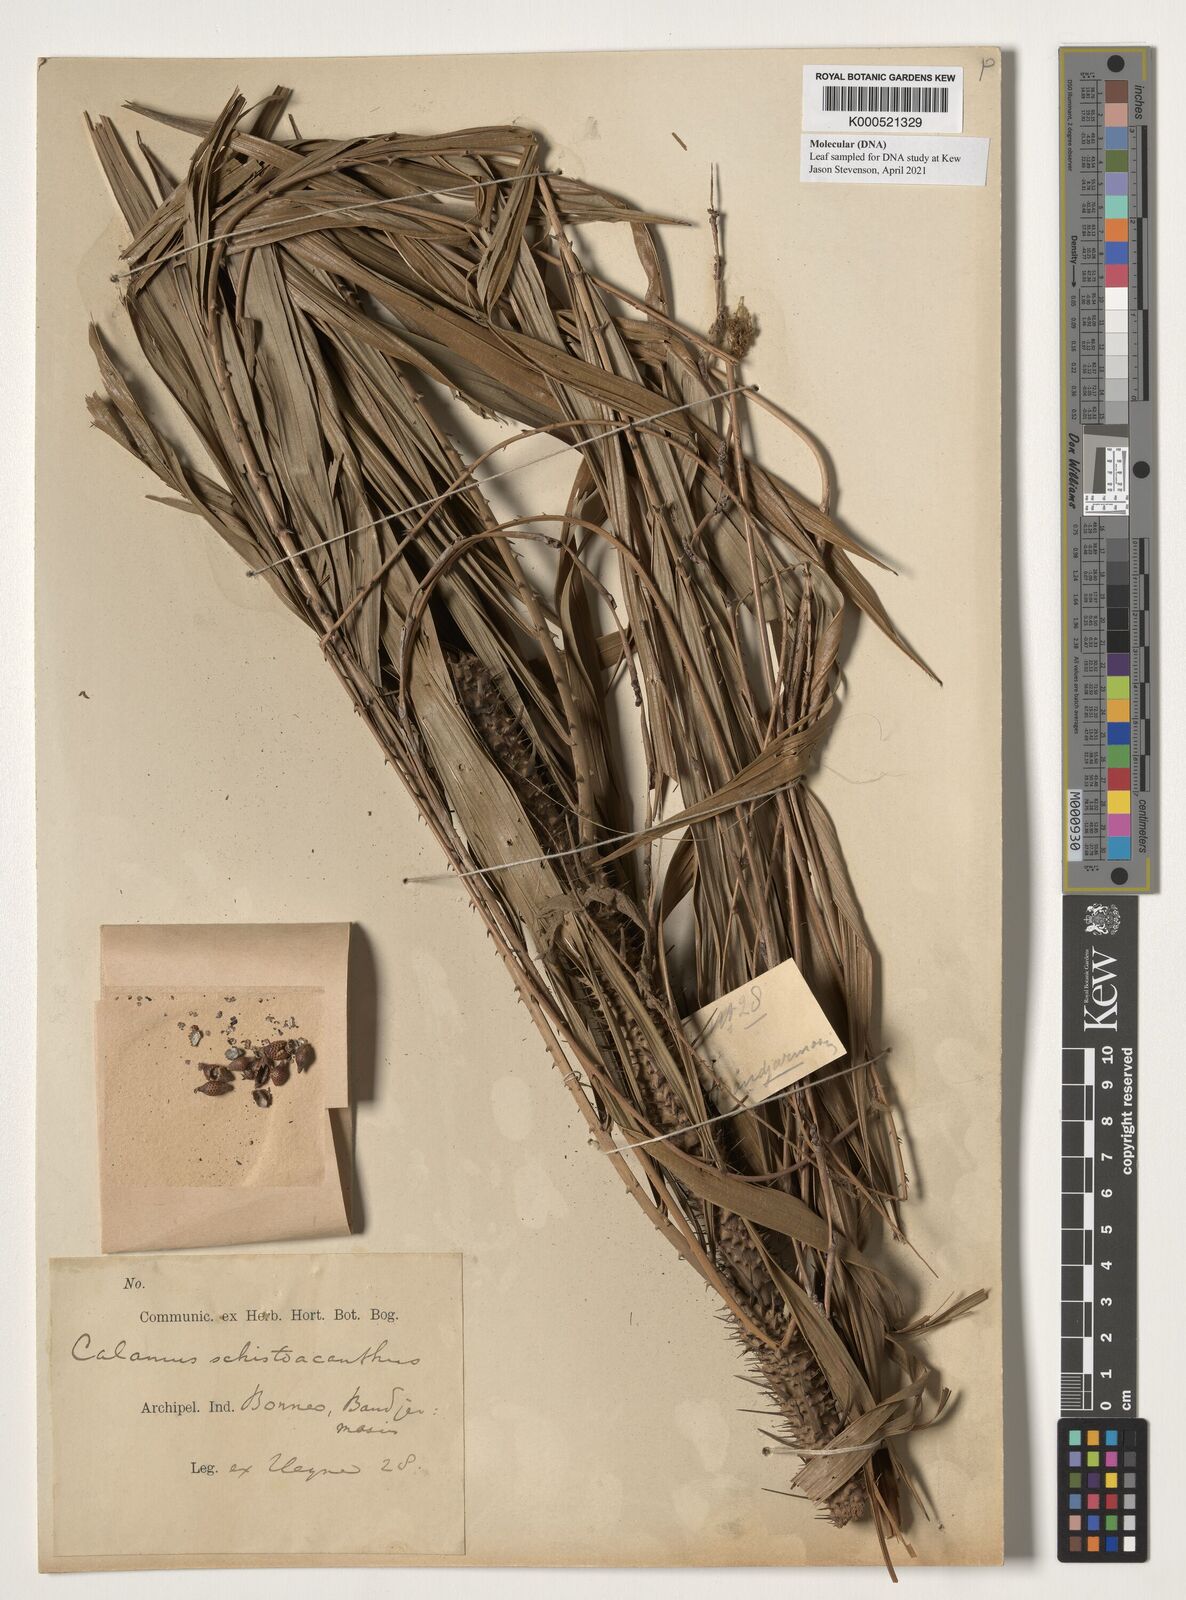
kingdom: Plantae
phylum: Tracheophyta
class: Liliopsida
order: Arecales
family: Arecaceae
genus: Calamus
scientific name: Calamus schistoacanthus
